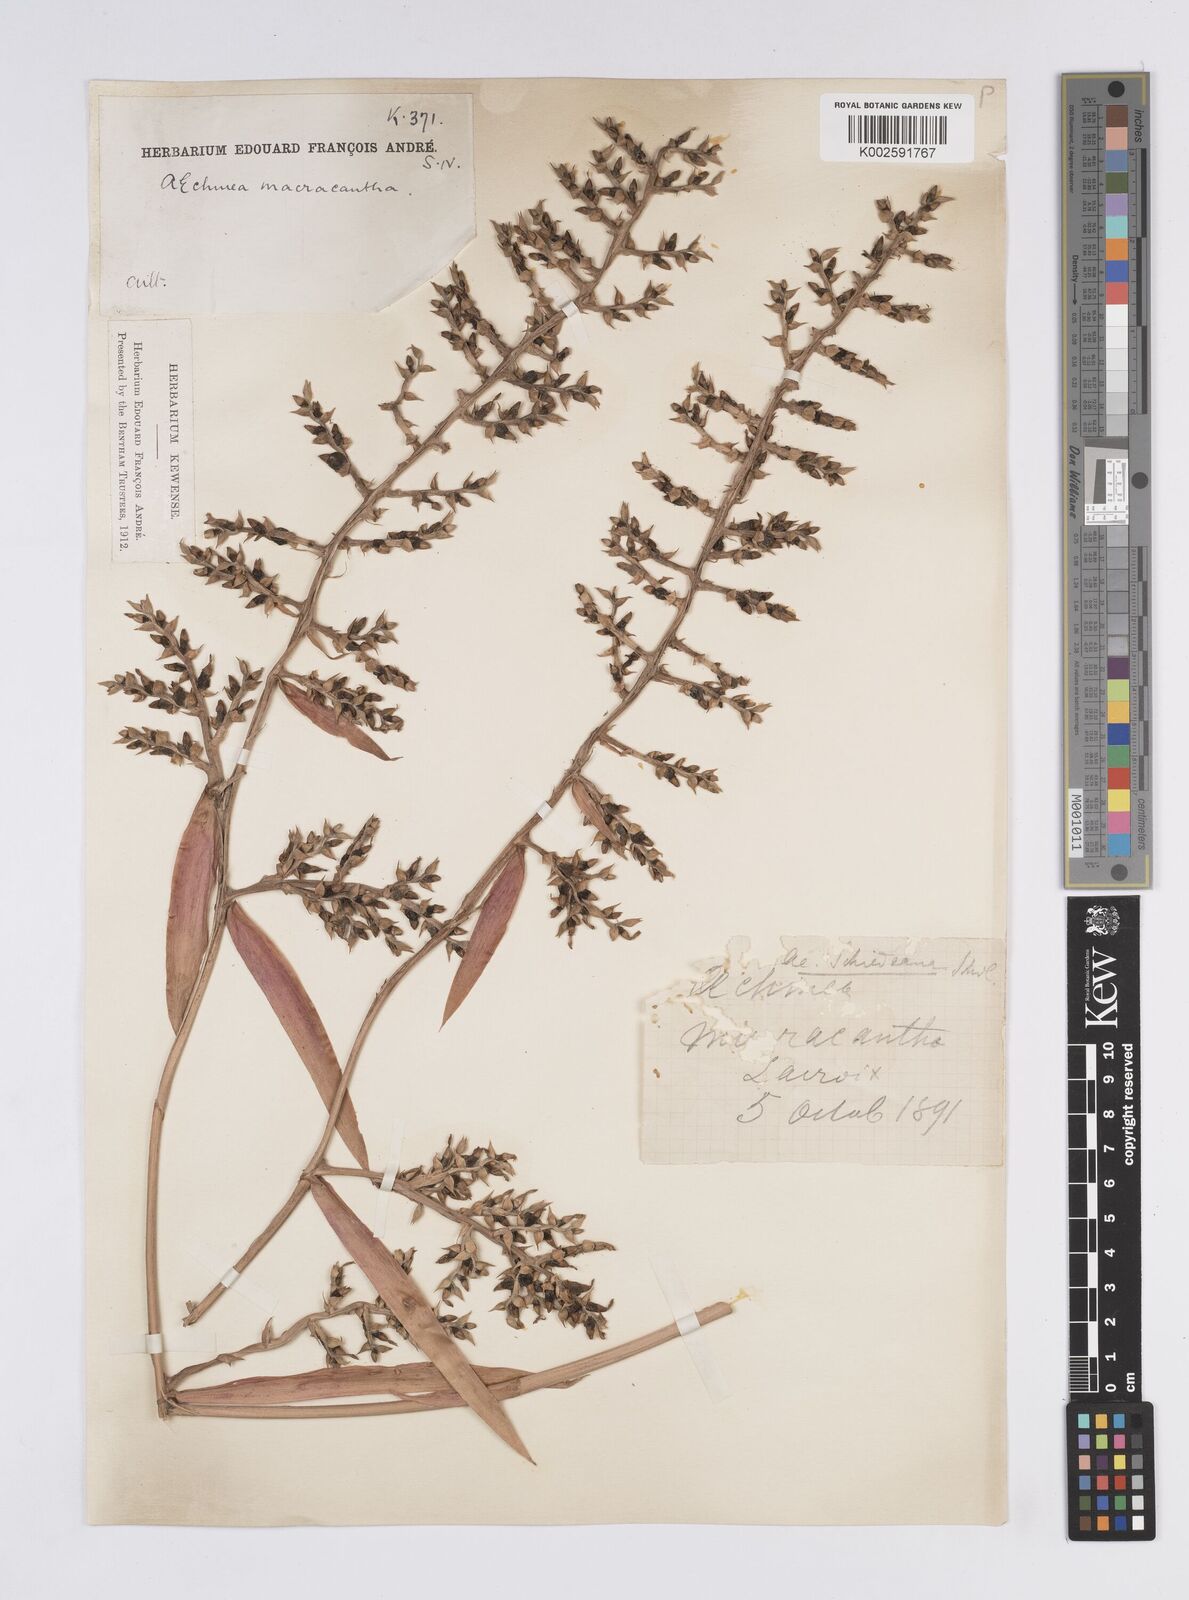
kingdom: Plantae
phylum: Tracheophyta
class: Liliopsida
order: Poales
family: Bromeliaceae
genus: Aechmea
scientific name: Aechmea bracteata
